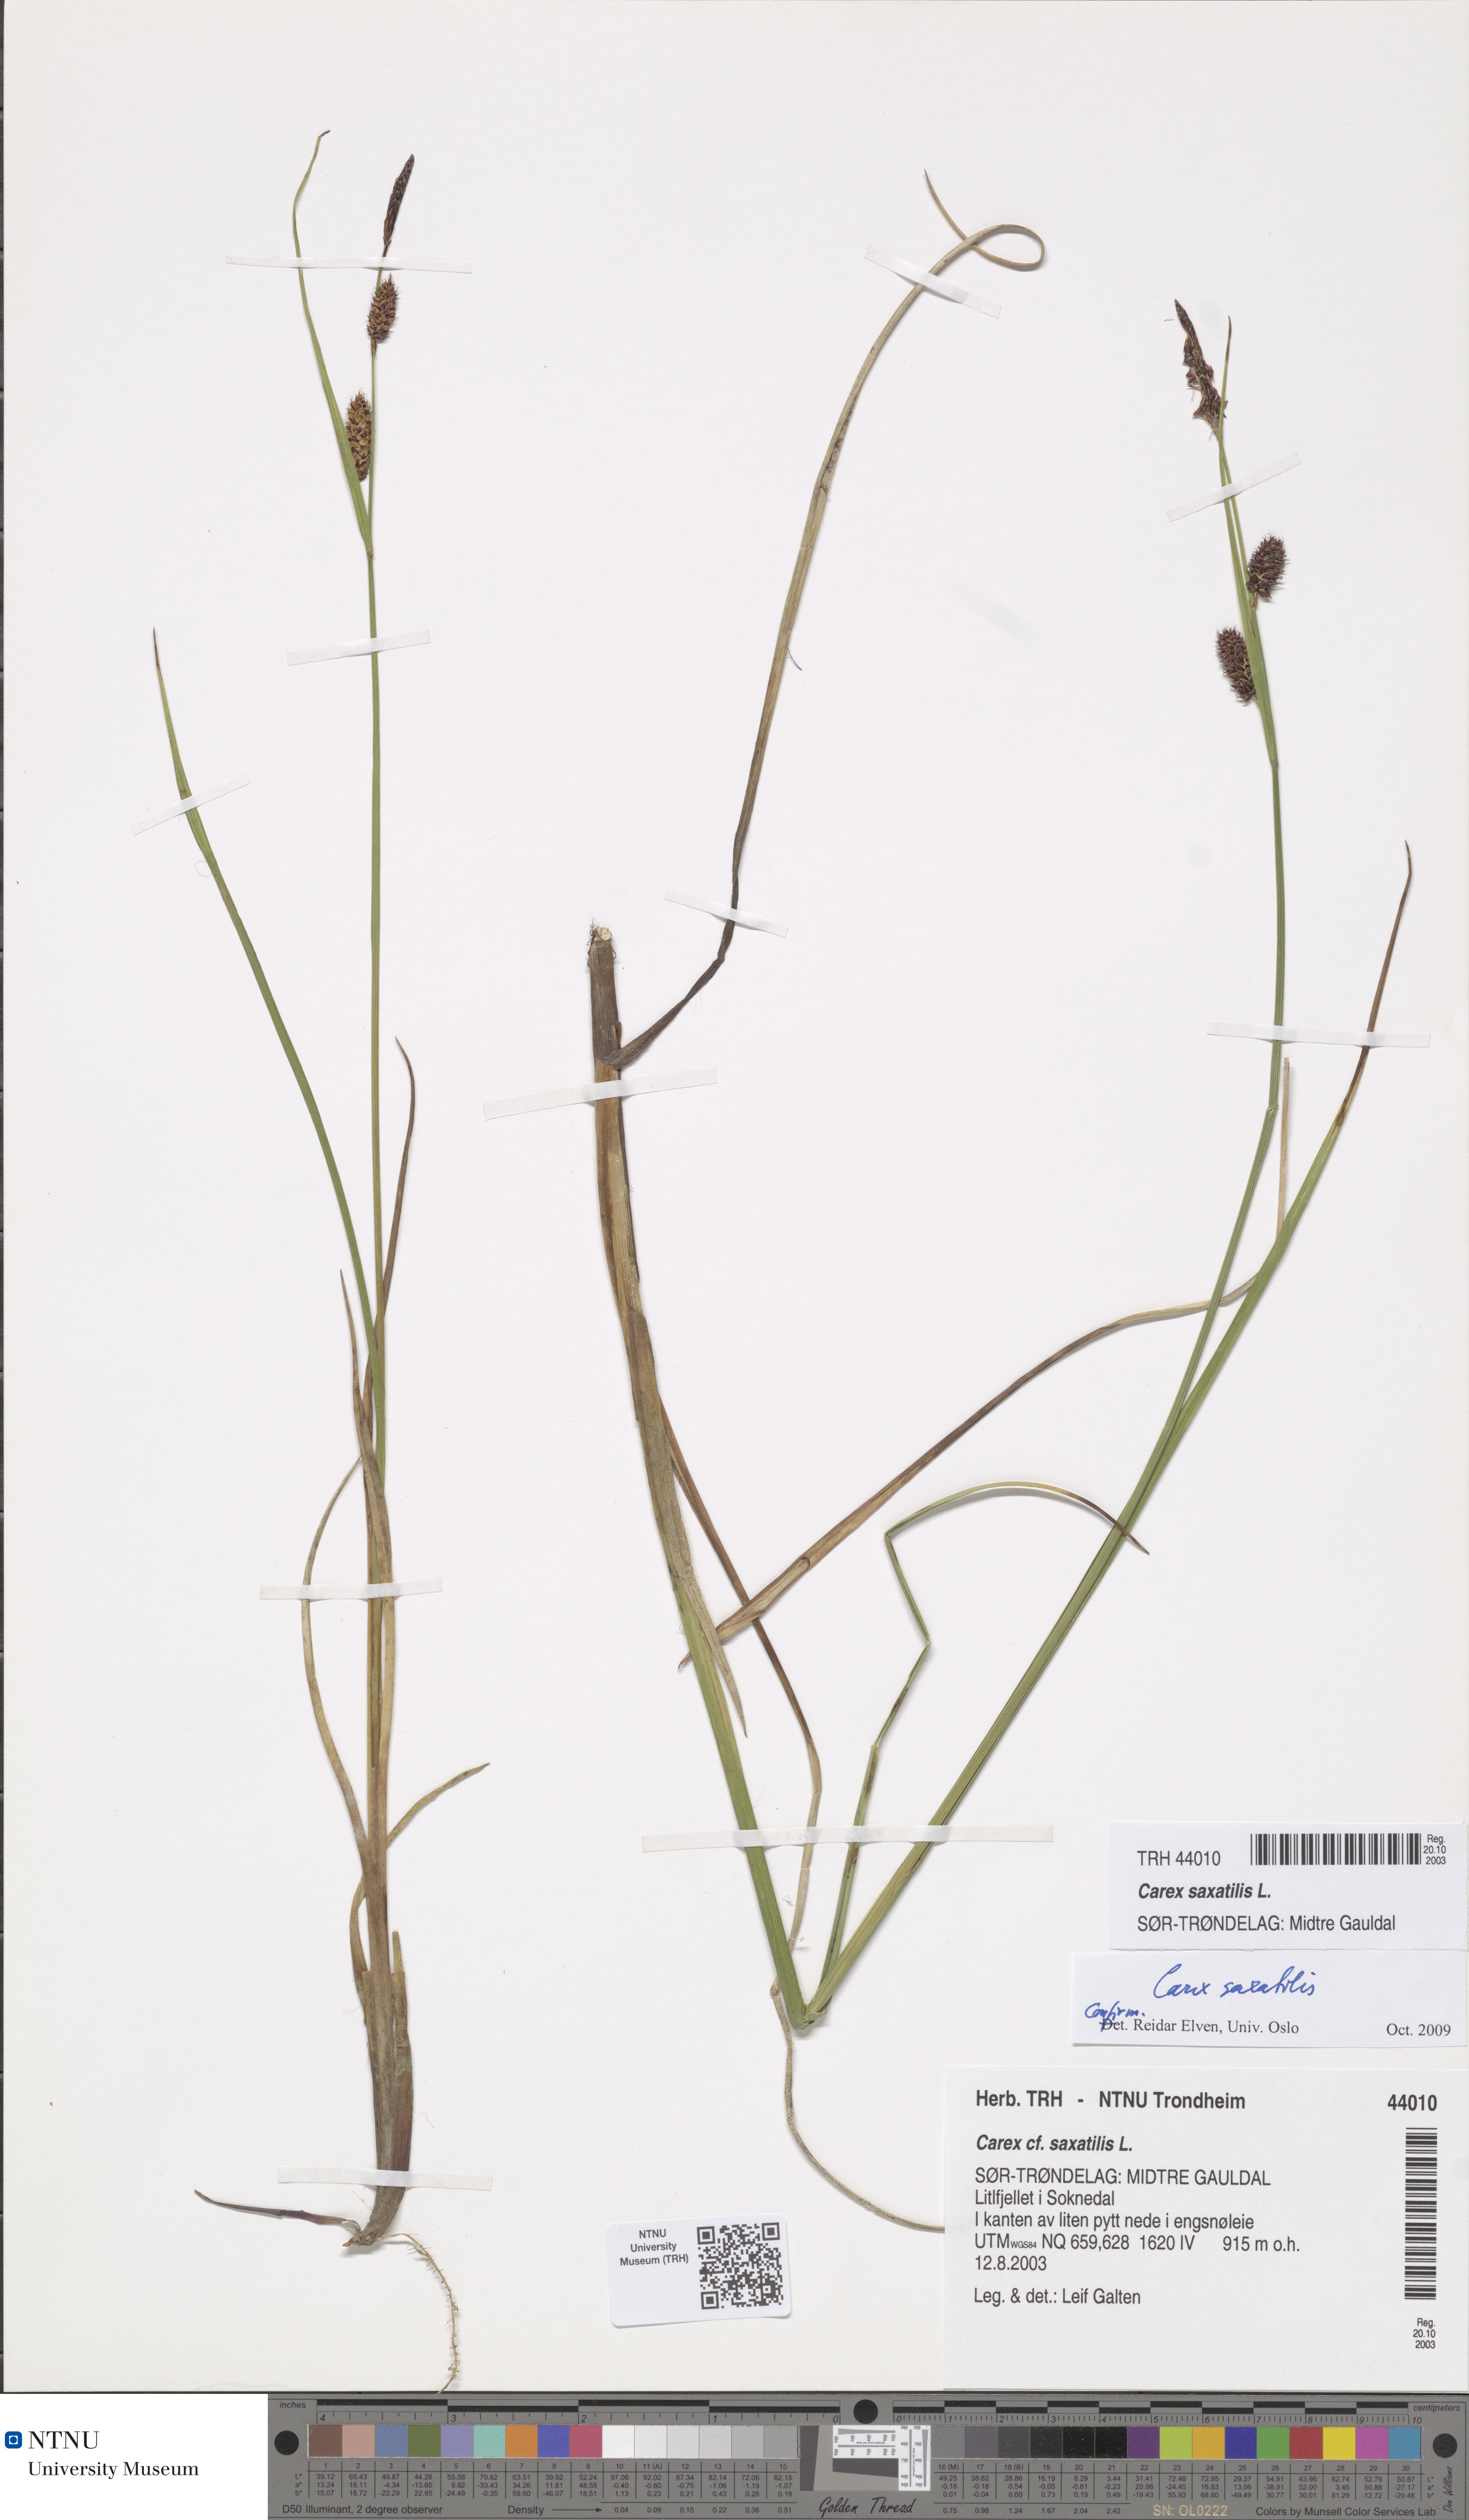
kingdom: Plantae
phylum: Tracheophyta
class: Liliopsida
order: Poales
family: Cyperaceae
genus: Carex
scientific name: Carex saxatilis
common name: Russet sedge
